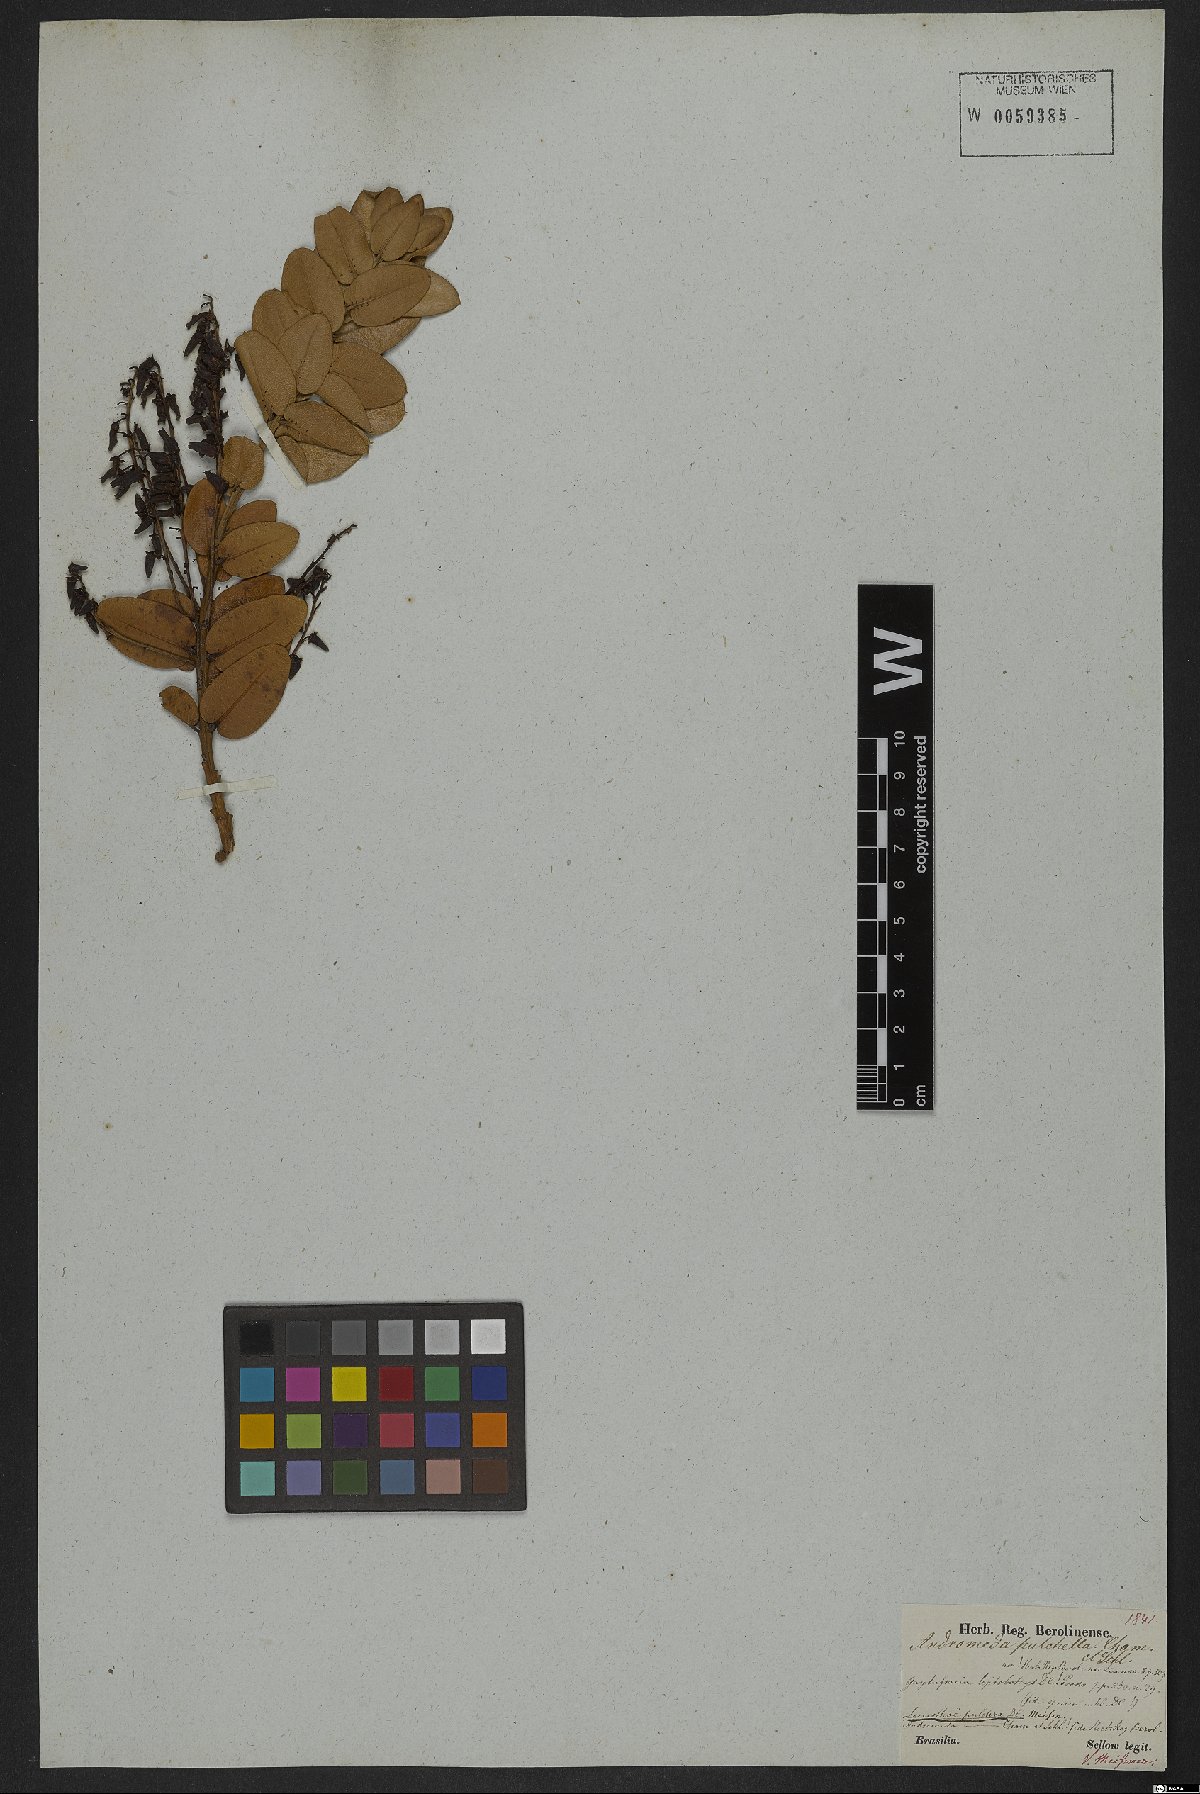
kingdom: Plantae
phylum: Tracheophyta
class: Magnoliopsida
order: Ericales
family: Ericaceae
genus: Agarista
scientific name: Agarista pulchra
